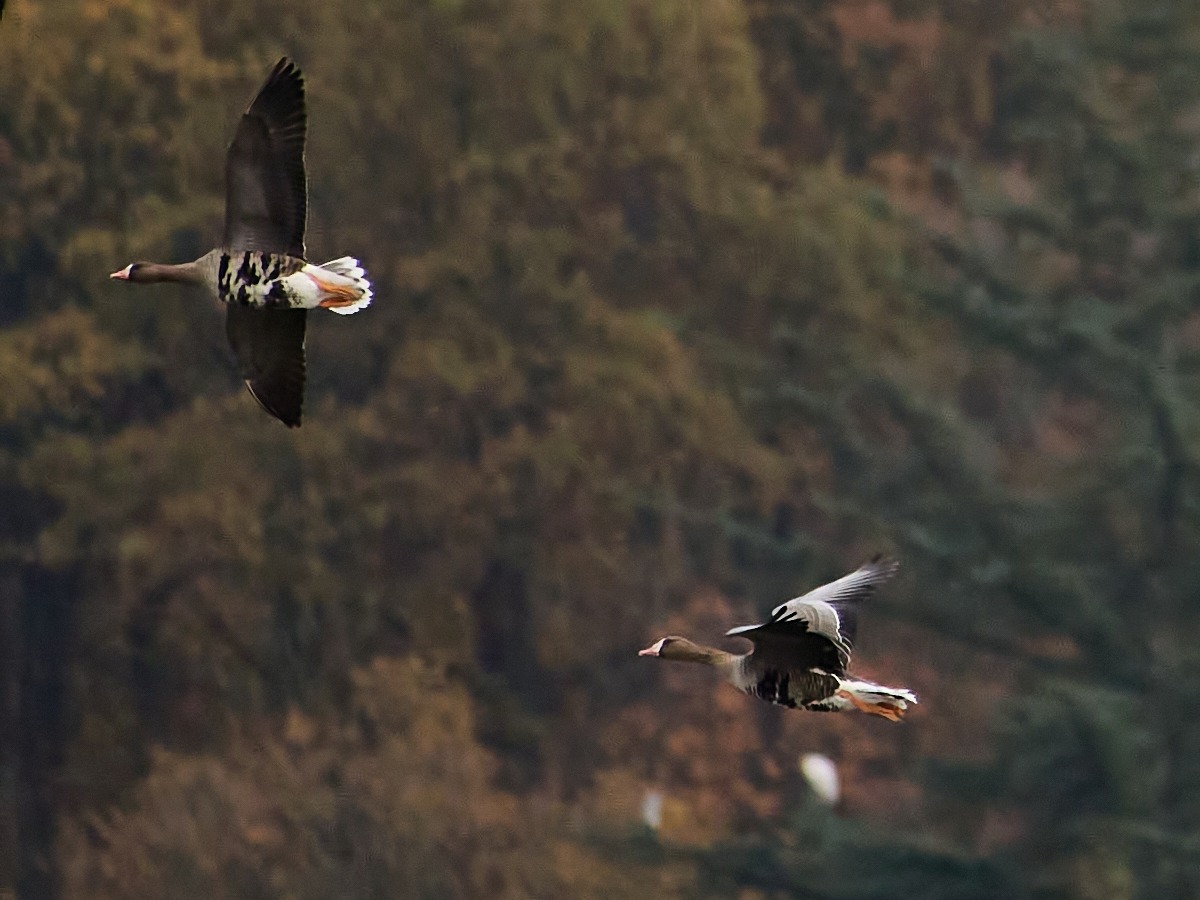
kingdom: Animalia
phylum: Chordata
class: Aves
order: Anseriformes
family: Anatidae
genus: Anser
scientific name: Anser albifrons
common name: Blisgås
